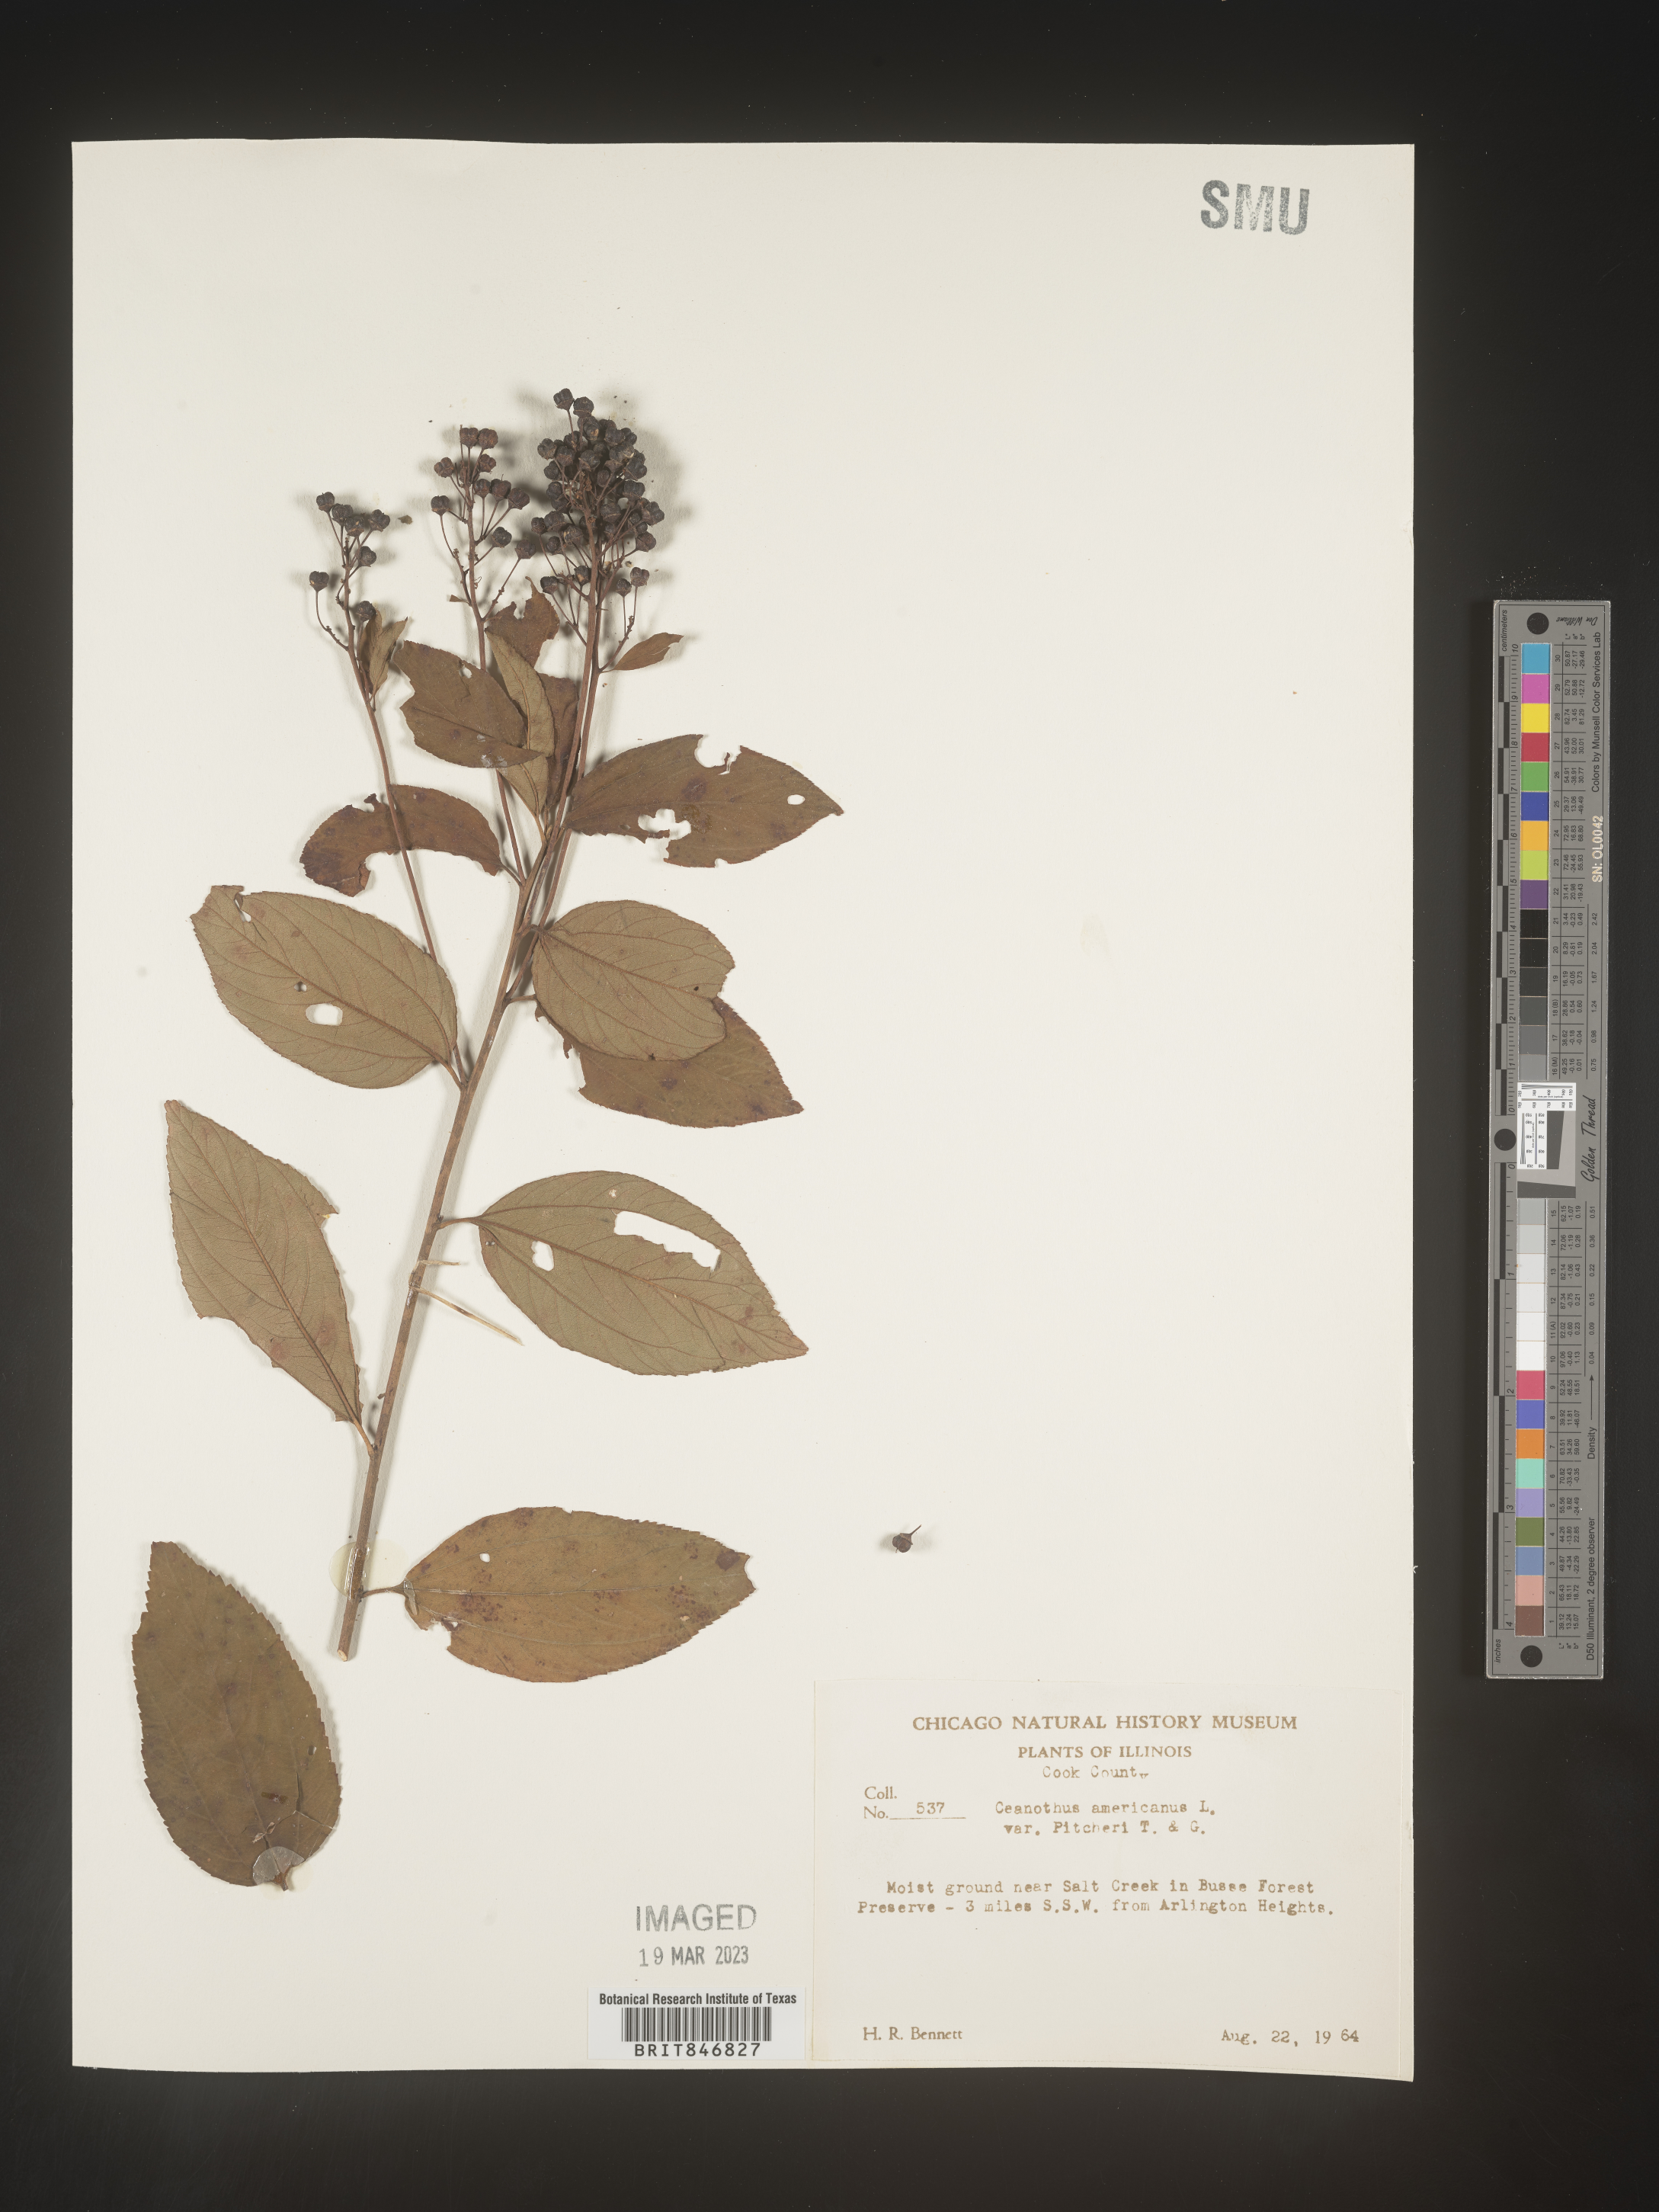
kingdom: Plantae
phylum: Tracheophyta
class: Magnoliopsida
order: Rosales
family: Rhamnaceae
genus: Ceanothus
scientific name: Ceanothus americanus
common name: Redroot
